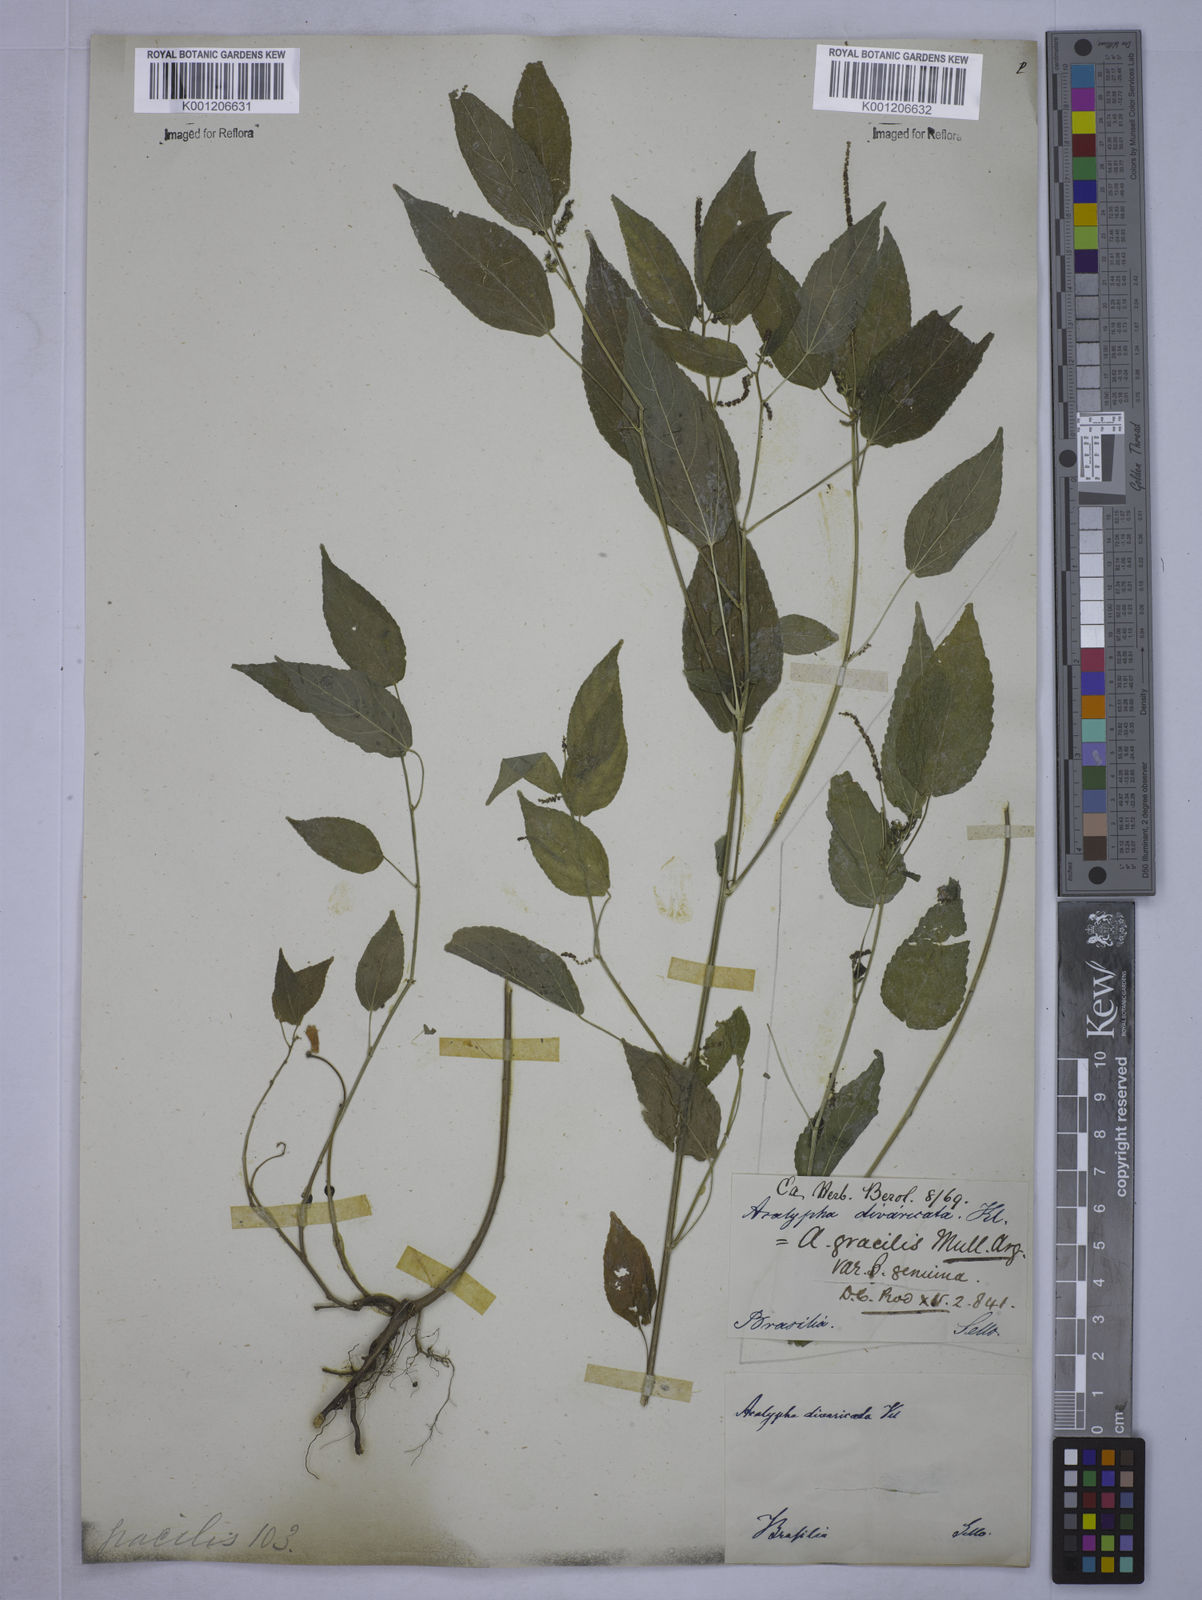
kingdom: Plantae
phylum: Tracheophyta
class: Magnoliopsida
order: Malpighiales
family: Euphorbiaceae
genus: Acalypha
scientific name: Acalypha gracilis
